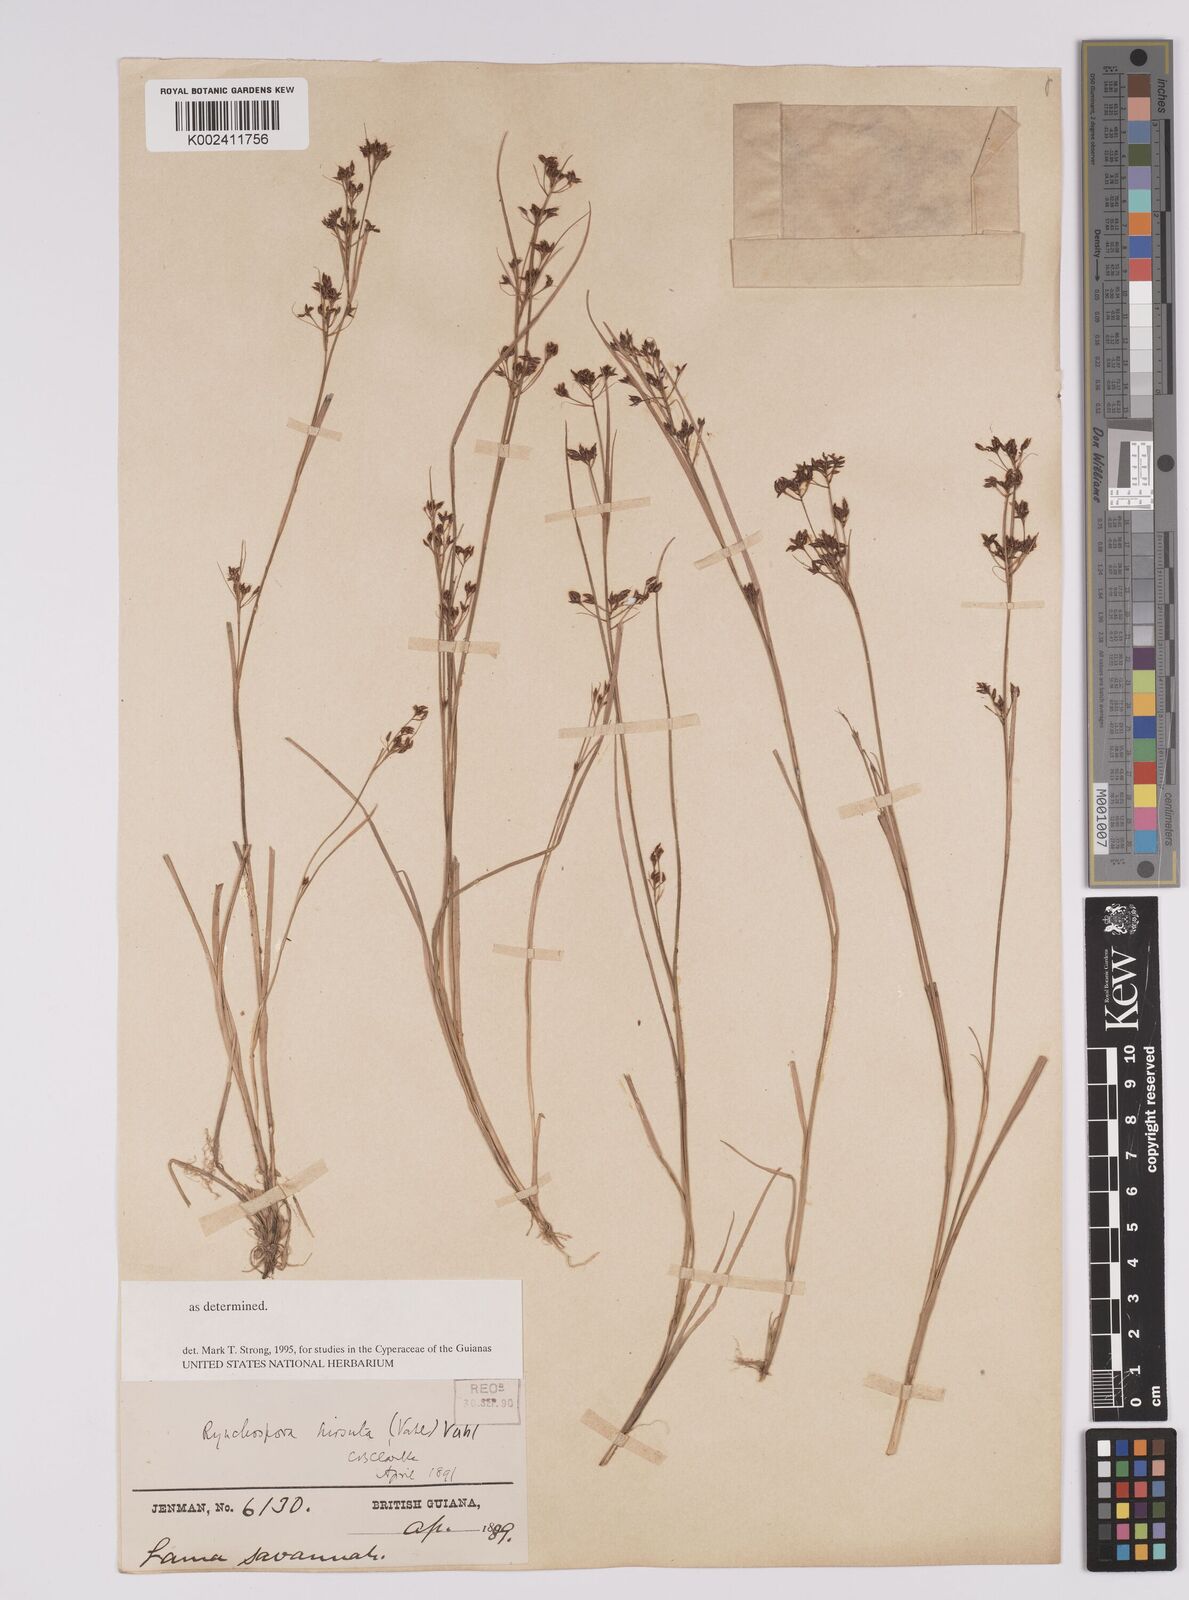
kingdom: Plantae
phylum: Tracheophyta
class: Liliopsida
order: Poales
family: Cyperaceae
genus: Rhynchospora
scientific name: Rhynchospora hirsuta
